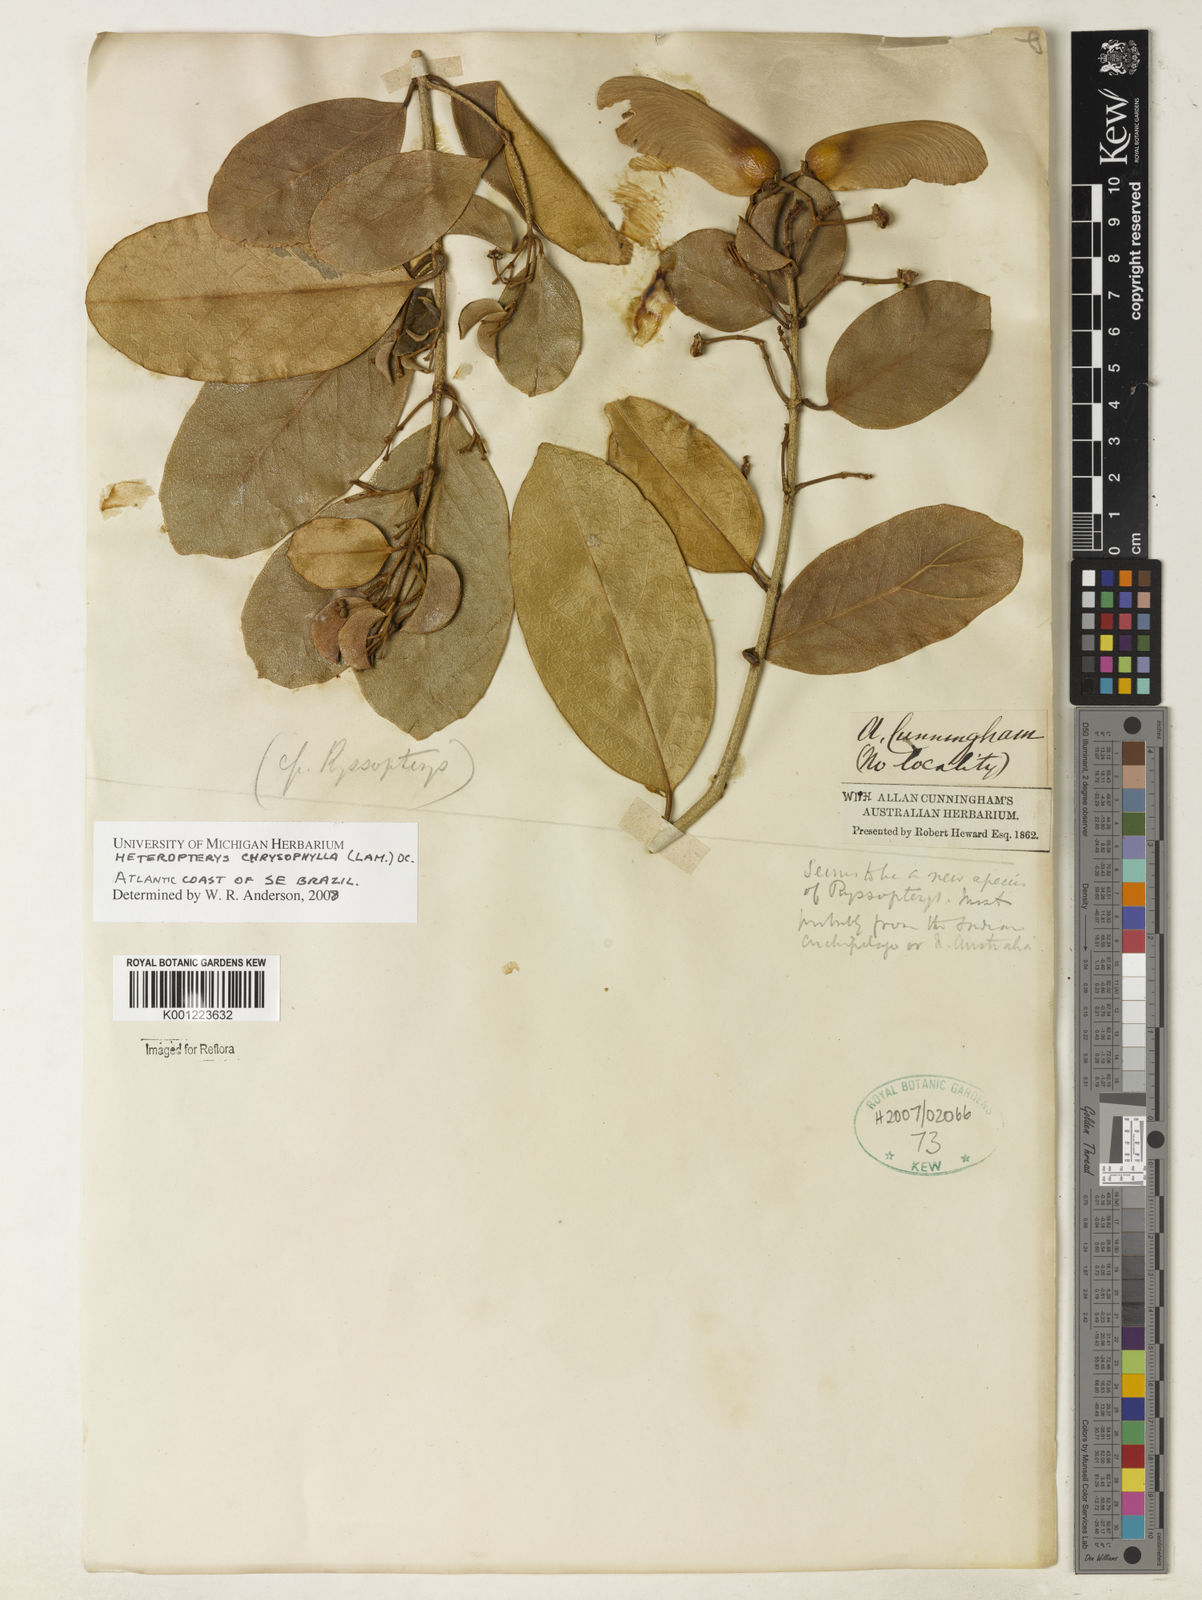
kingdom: Plantae
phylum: Tracheophyta
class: Magnoliopsida
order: Malpighiales
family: Malpighiaceae
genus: Heteropterys
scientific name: Heteropterys chrysophylla
